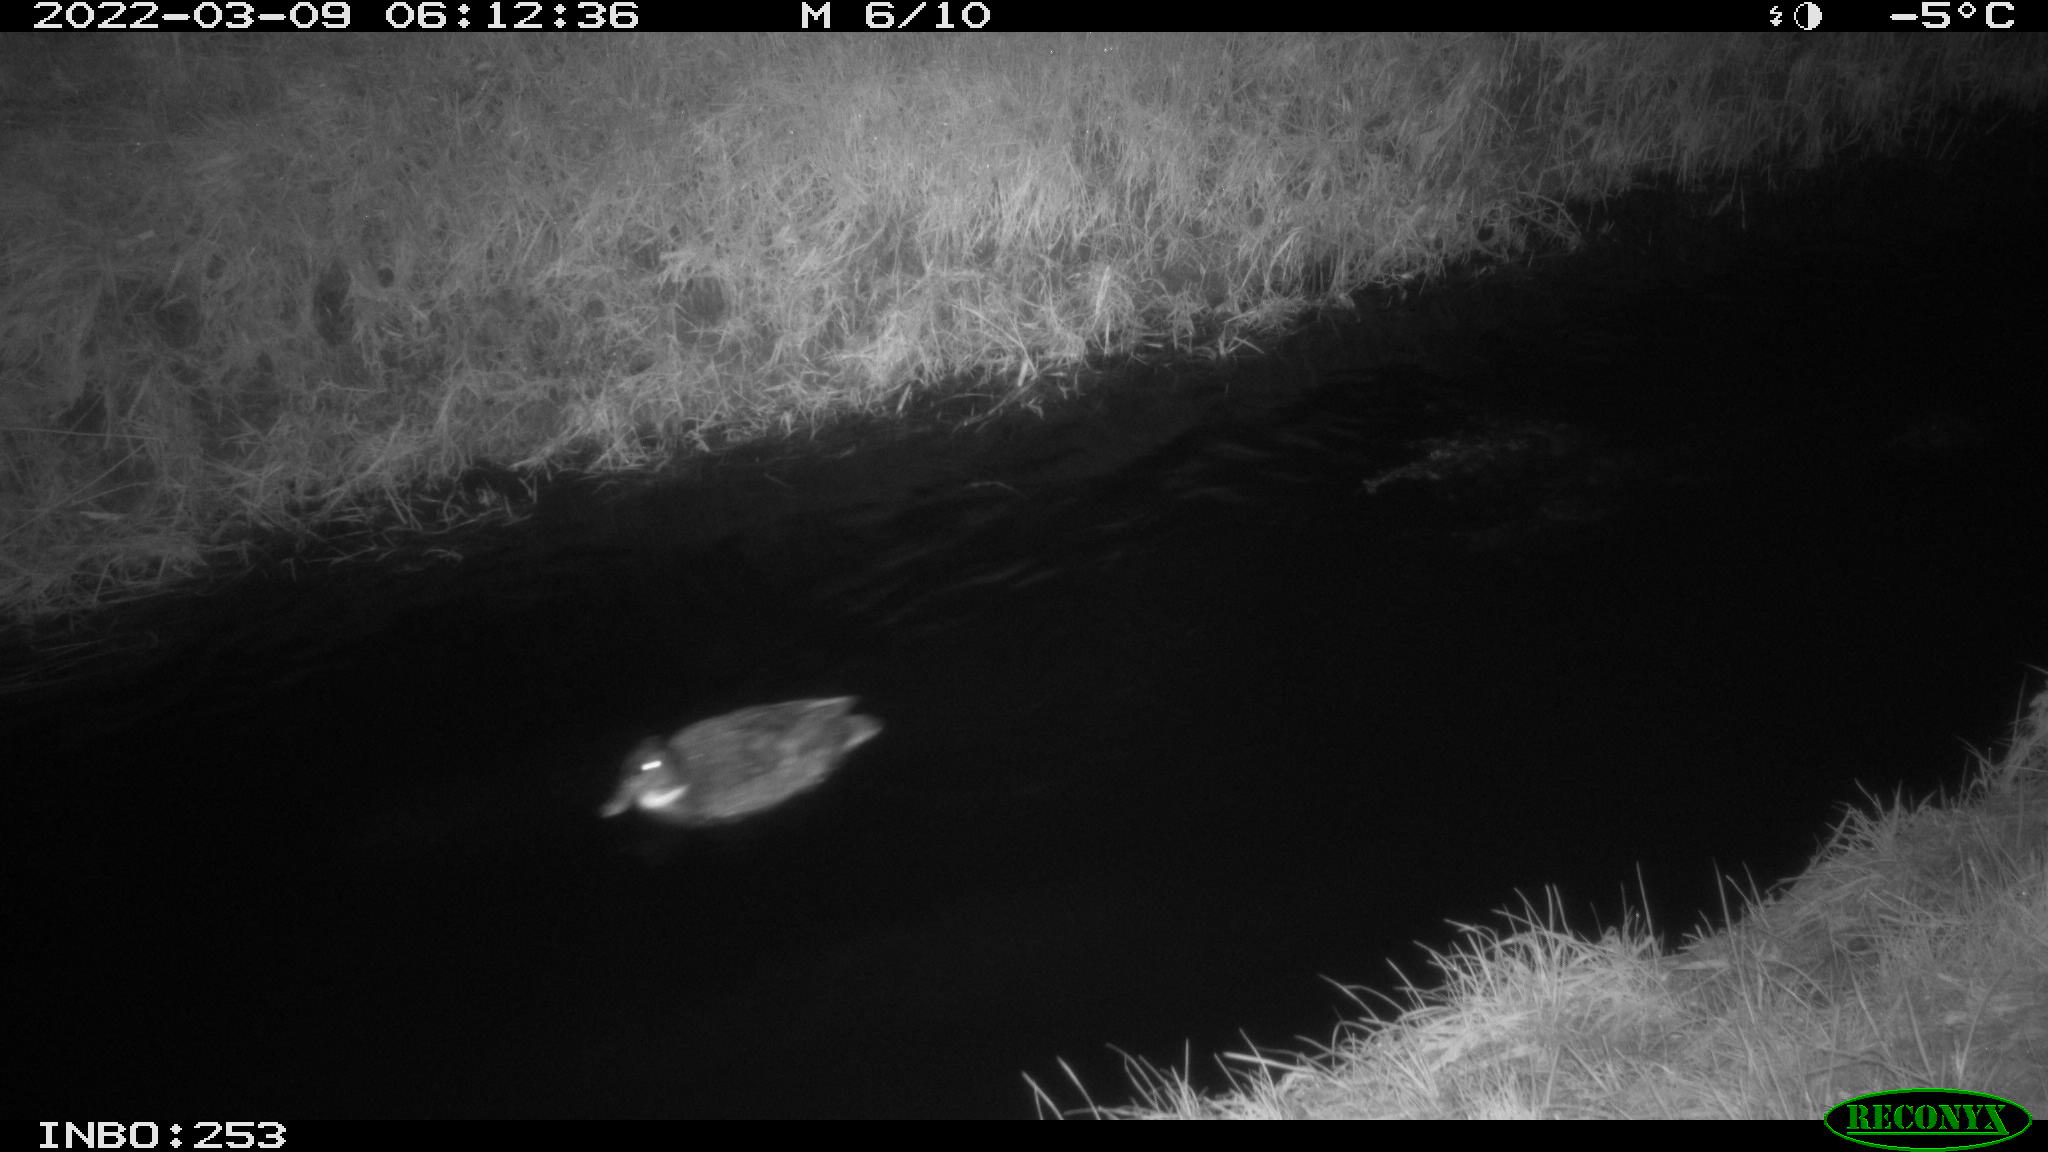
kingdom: Animalia
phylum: Chordata
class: Aves
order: Anseriformes
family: Anatidae
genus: Anas
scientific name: Anas platyrhynchos
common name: Mallard
